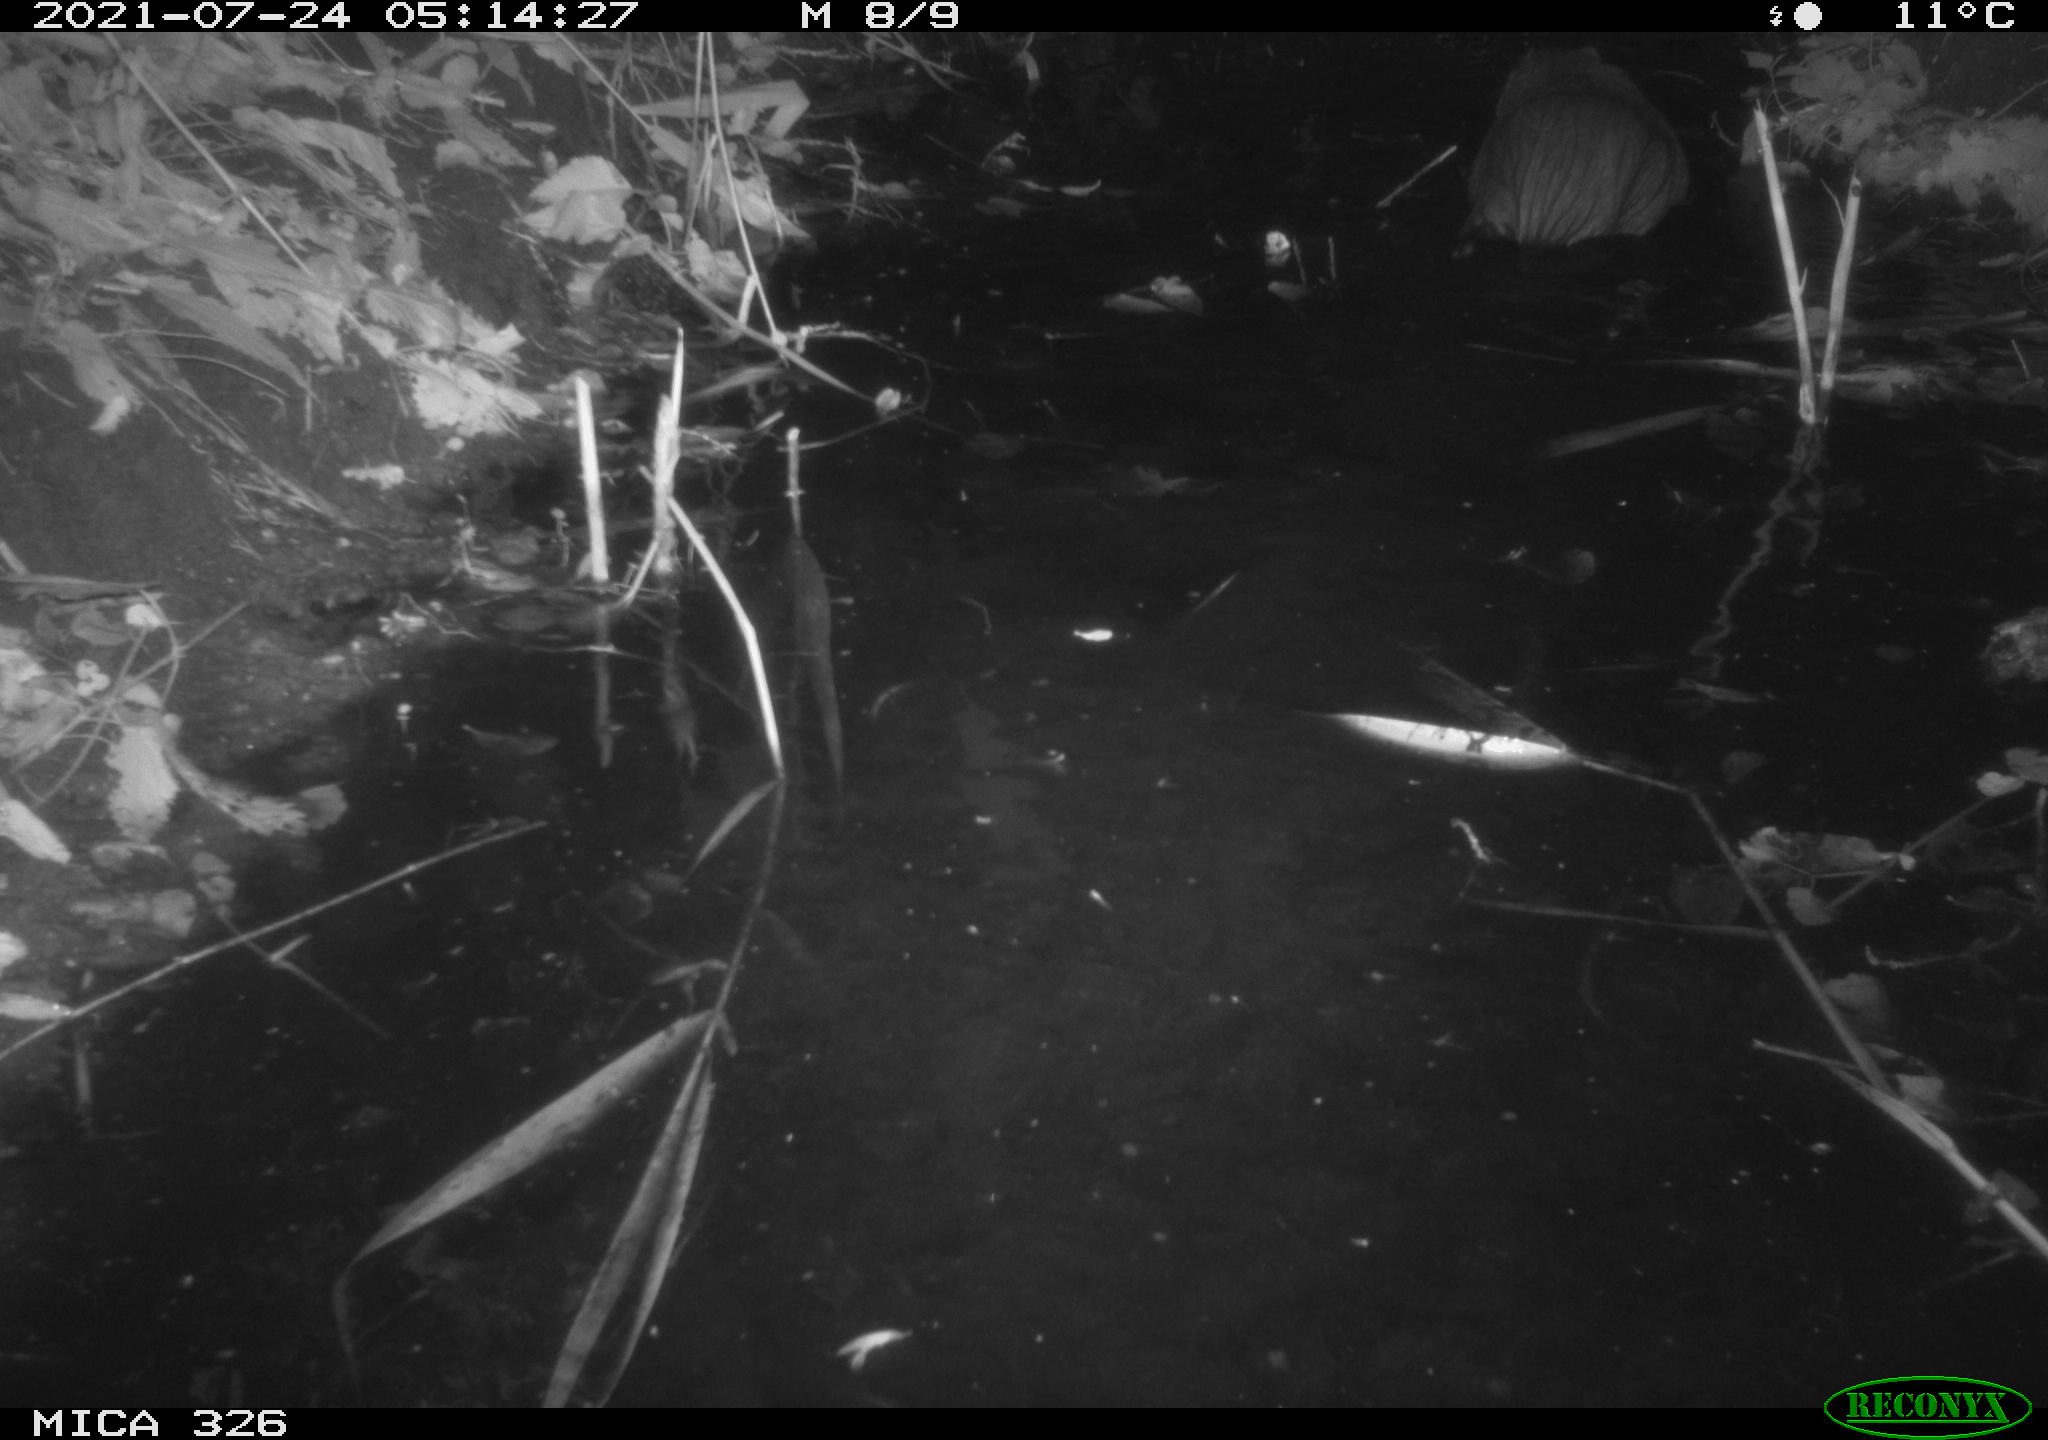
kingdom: Animalia
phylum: Chordata
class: Mammalia
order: Rodentia
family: Myocastoridae
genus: Myocastor
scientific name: Myocastor coypus
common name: Coypu
